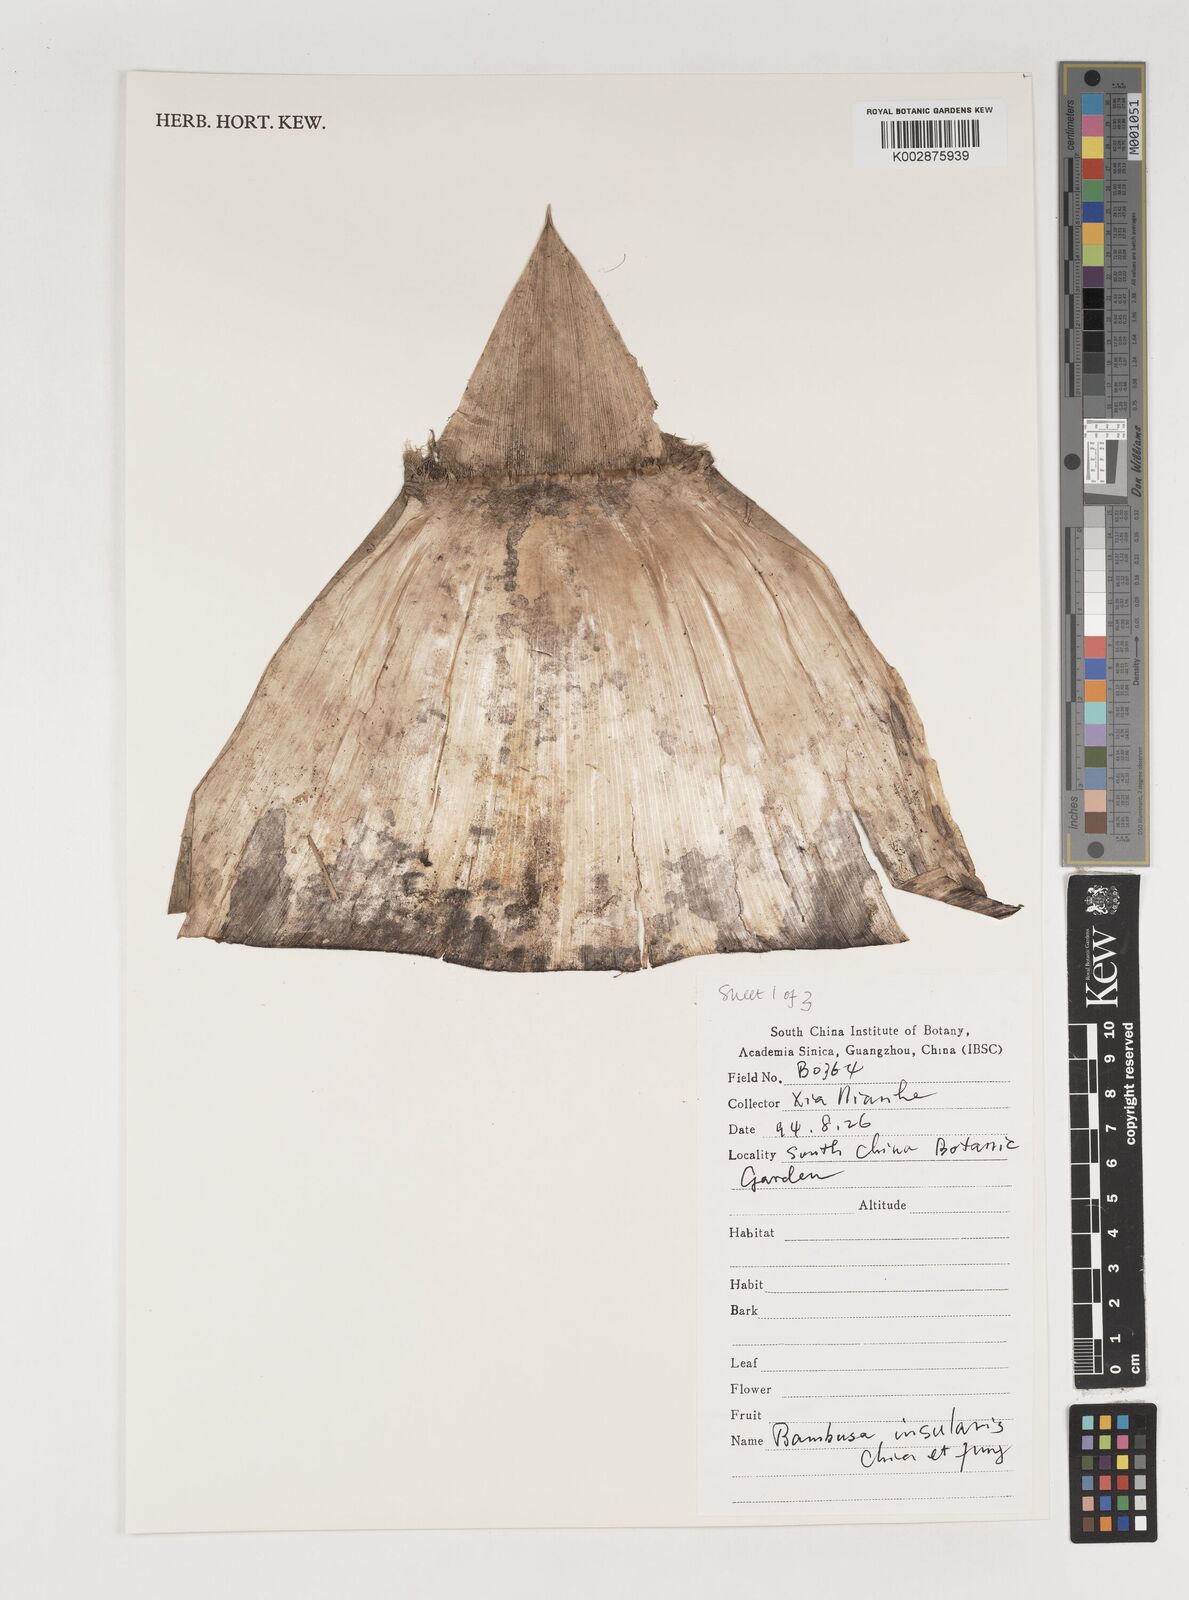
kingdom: Plantae
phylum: Tracheophyta
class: Liliopsida
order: Poales
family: Poaceae
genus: Bambusa
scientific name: Bambusa insularis
